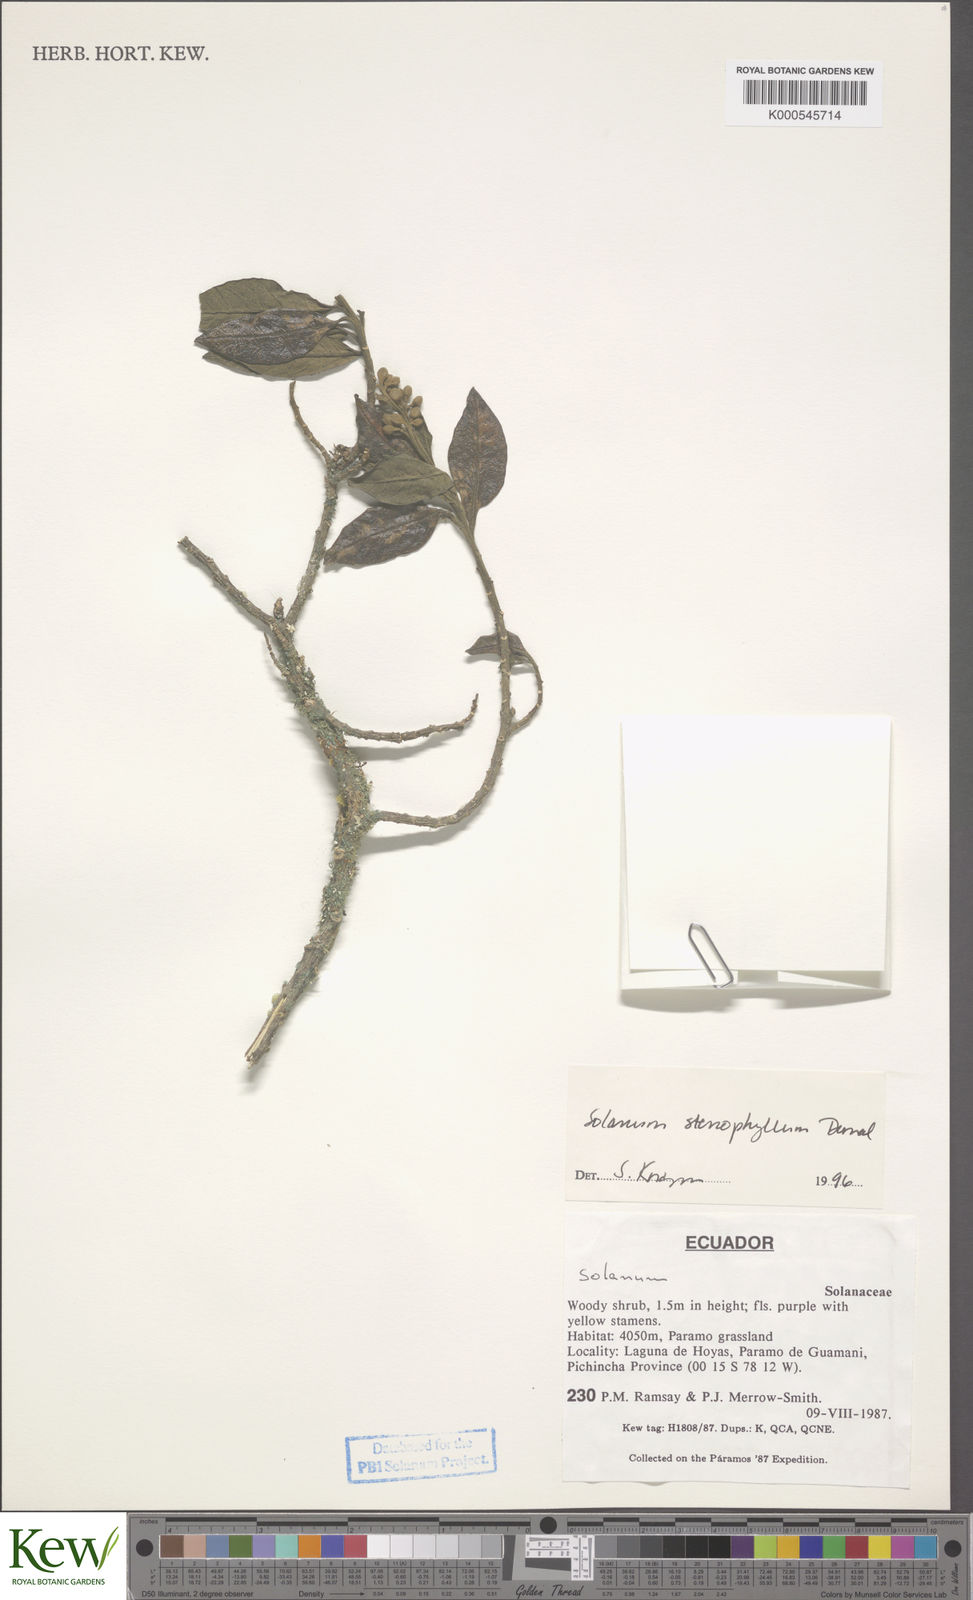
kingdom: Plantae
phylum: Tracheophyta
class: Magnoliopsida
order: Solanales
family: Solanaceae
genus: Solanum
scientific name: Solanum stenophyllum
